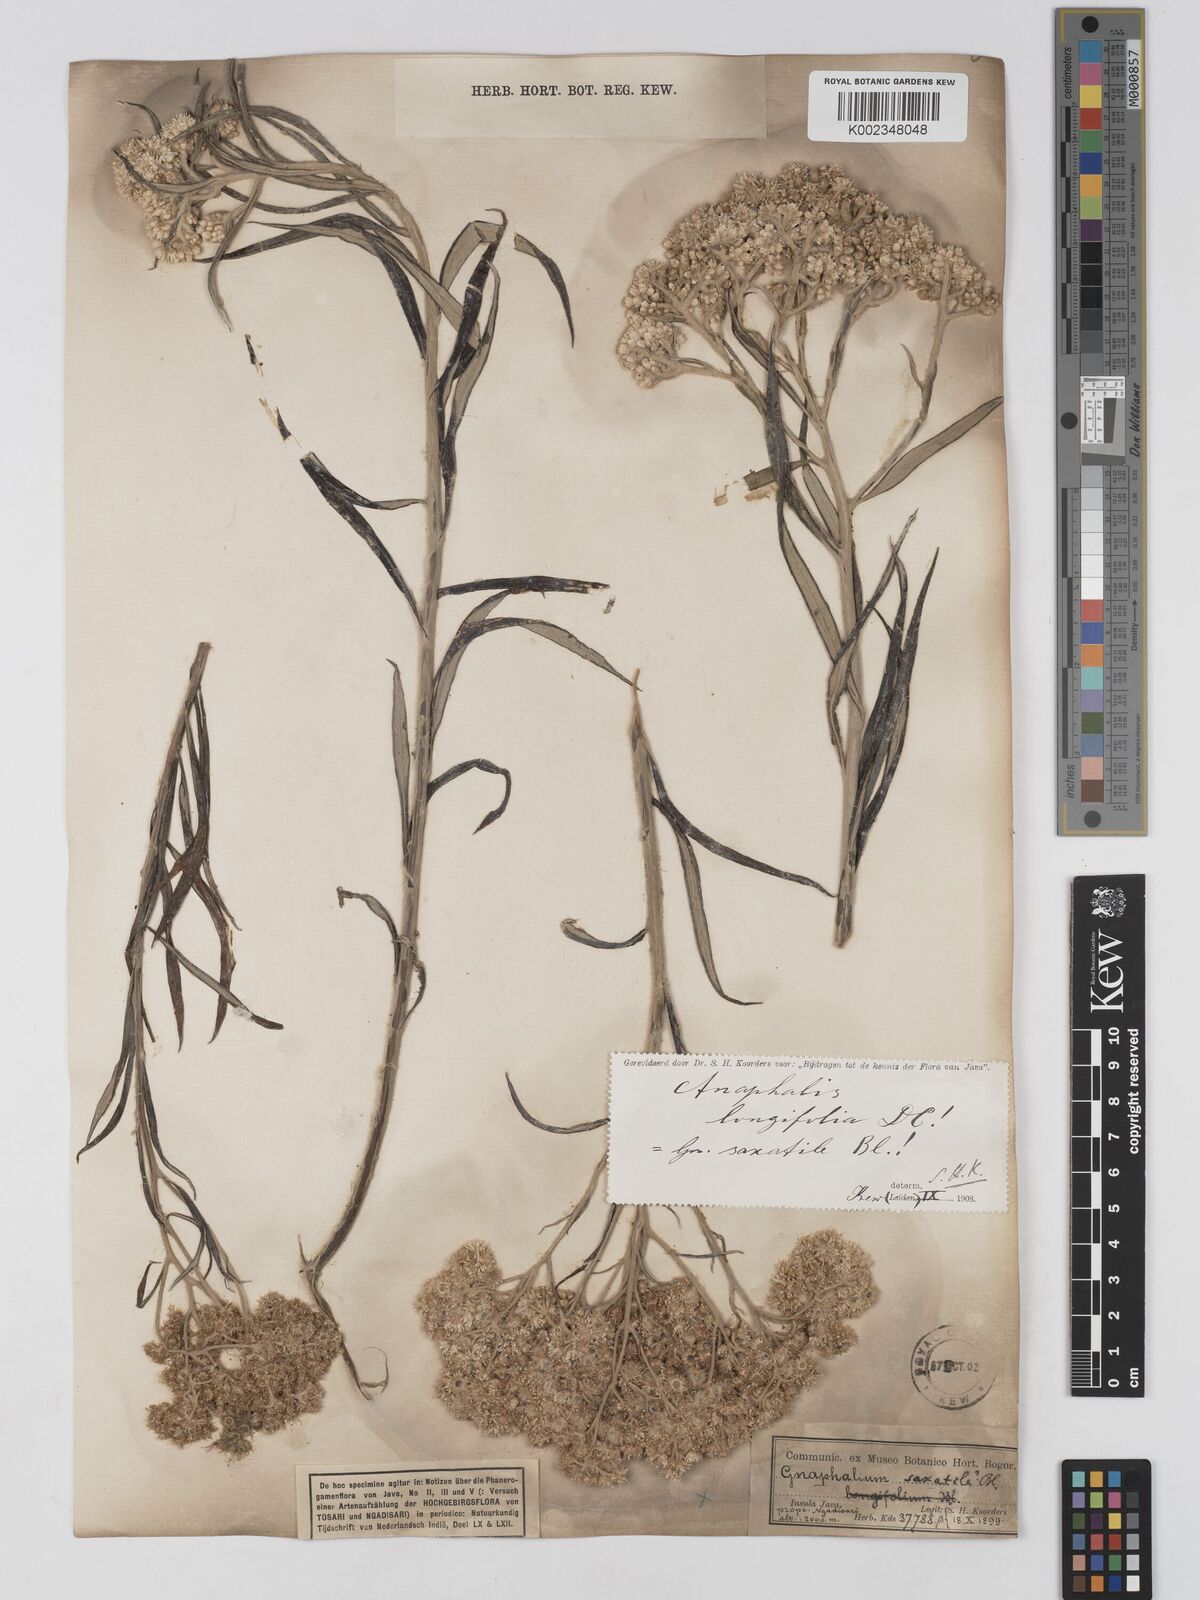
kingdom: Plantae
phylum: Tracheophyta
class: Magnoliopsida
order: Asterales
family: Asteraceae
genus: Anaphalis
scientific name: Anaphalis longifolia
